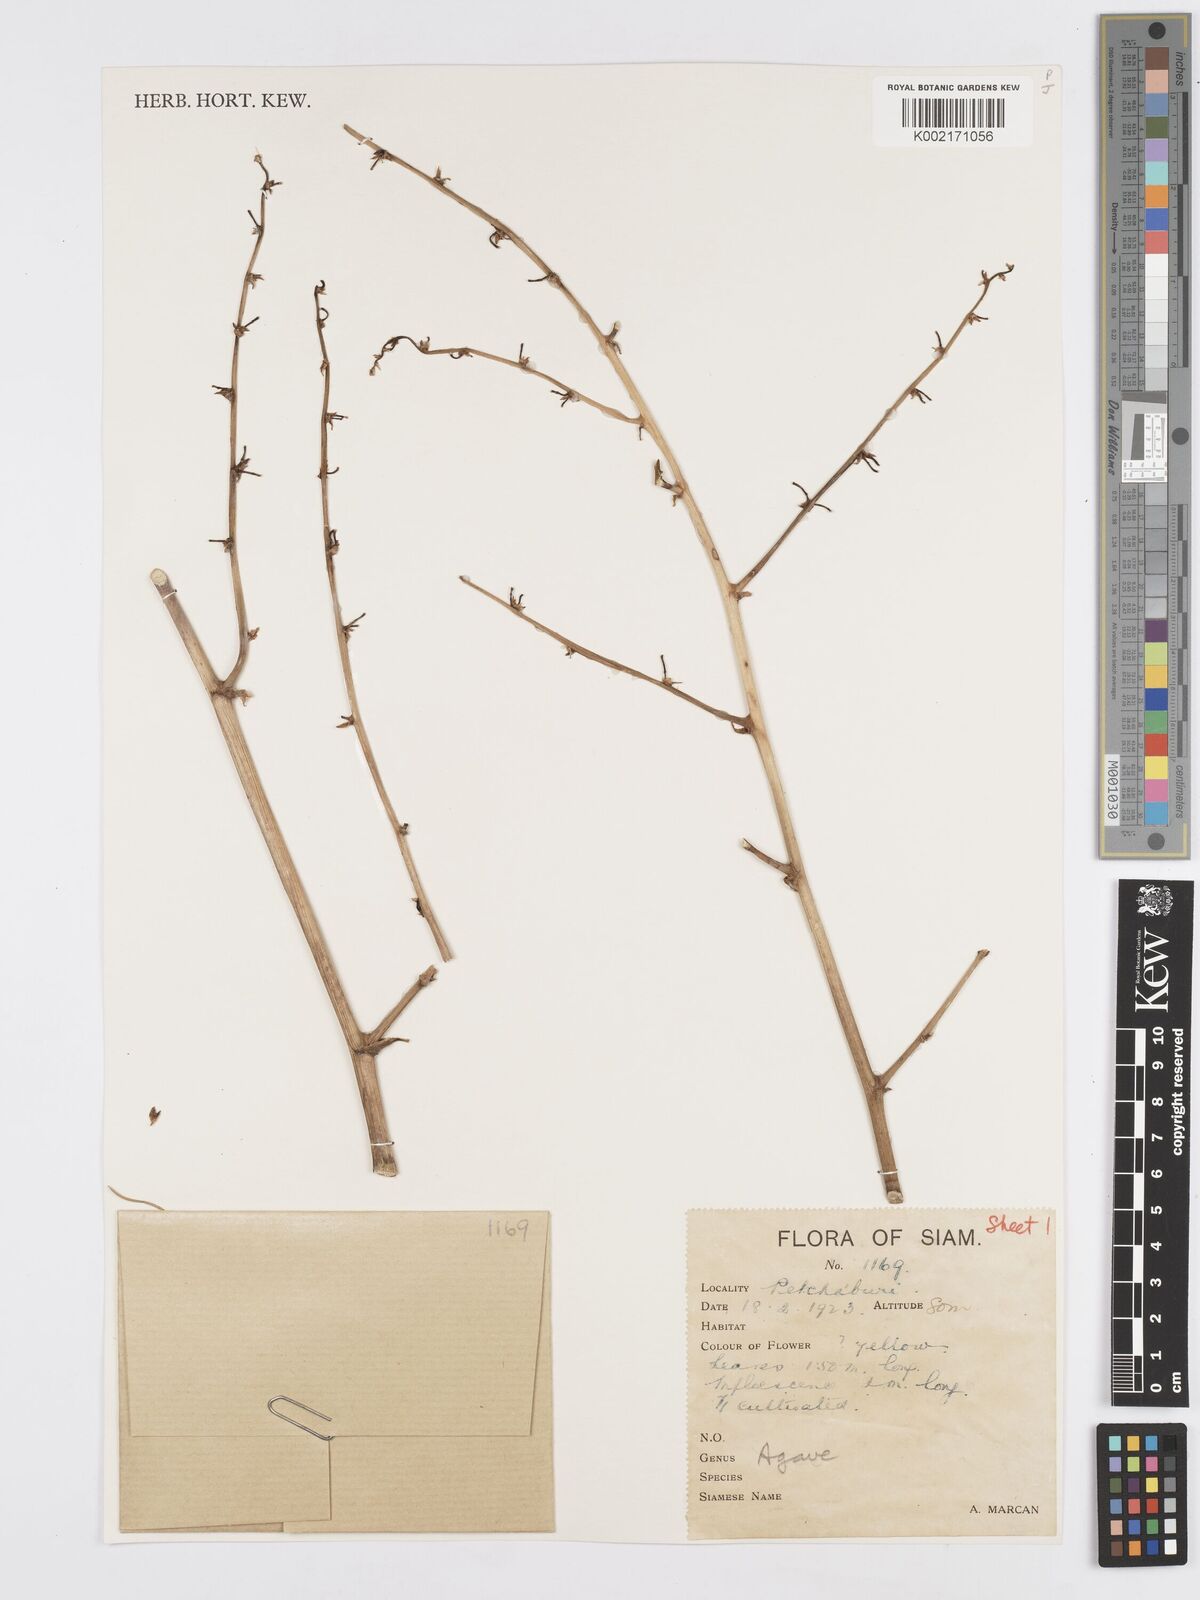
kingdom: Plantae
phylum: Tracheophyta
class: Liliopsida
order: Asparagales
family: Asparagaceae
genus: Agave
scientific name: Agave
